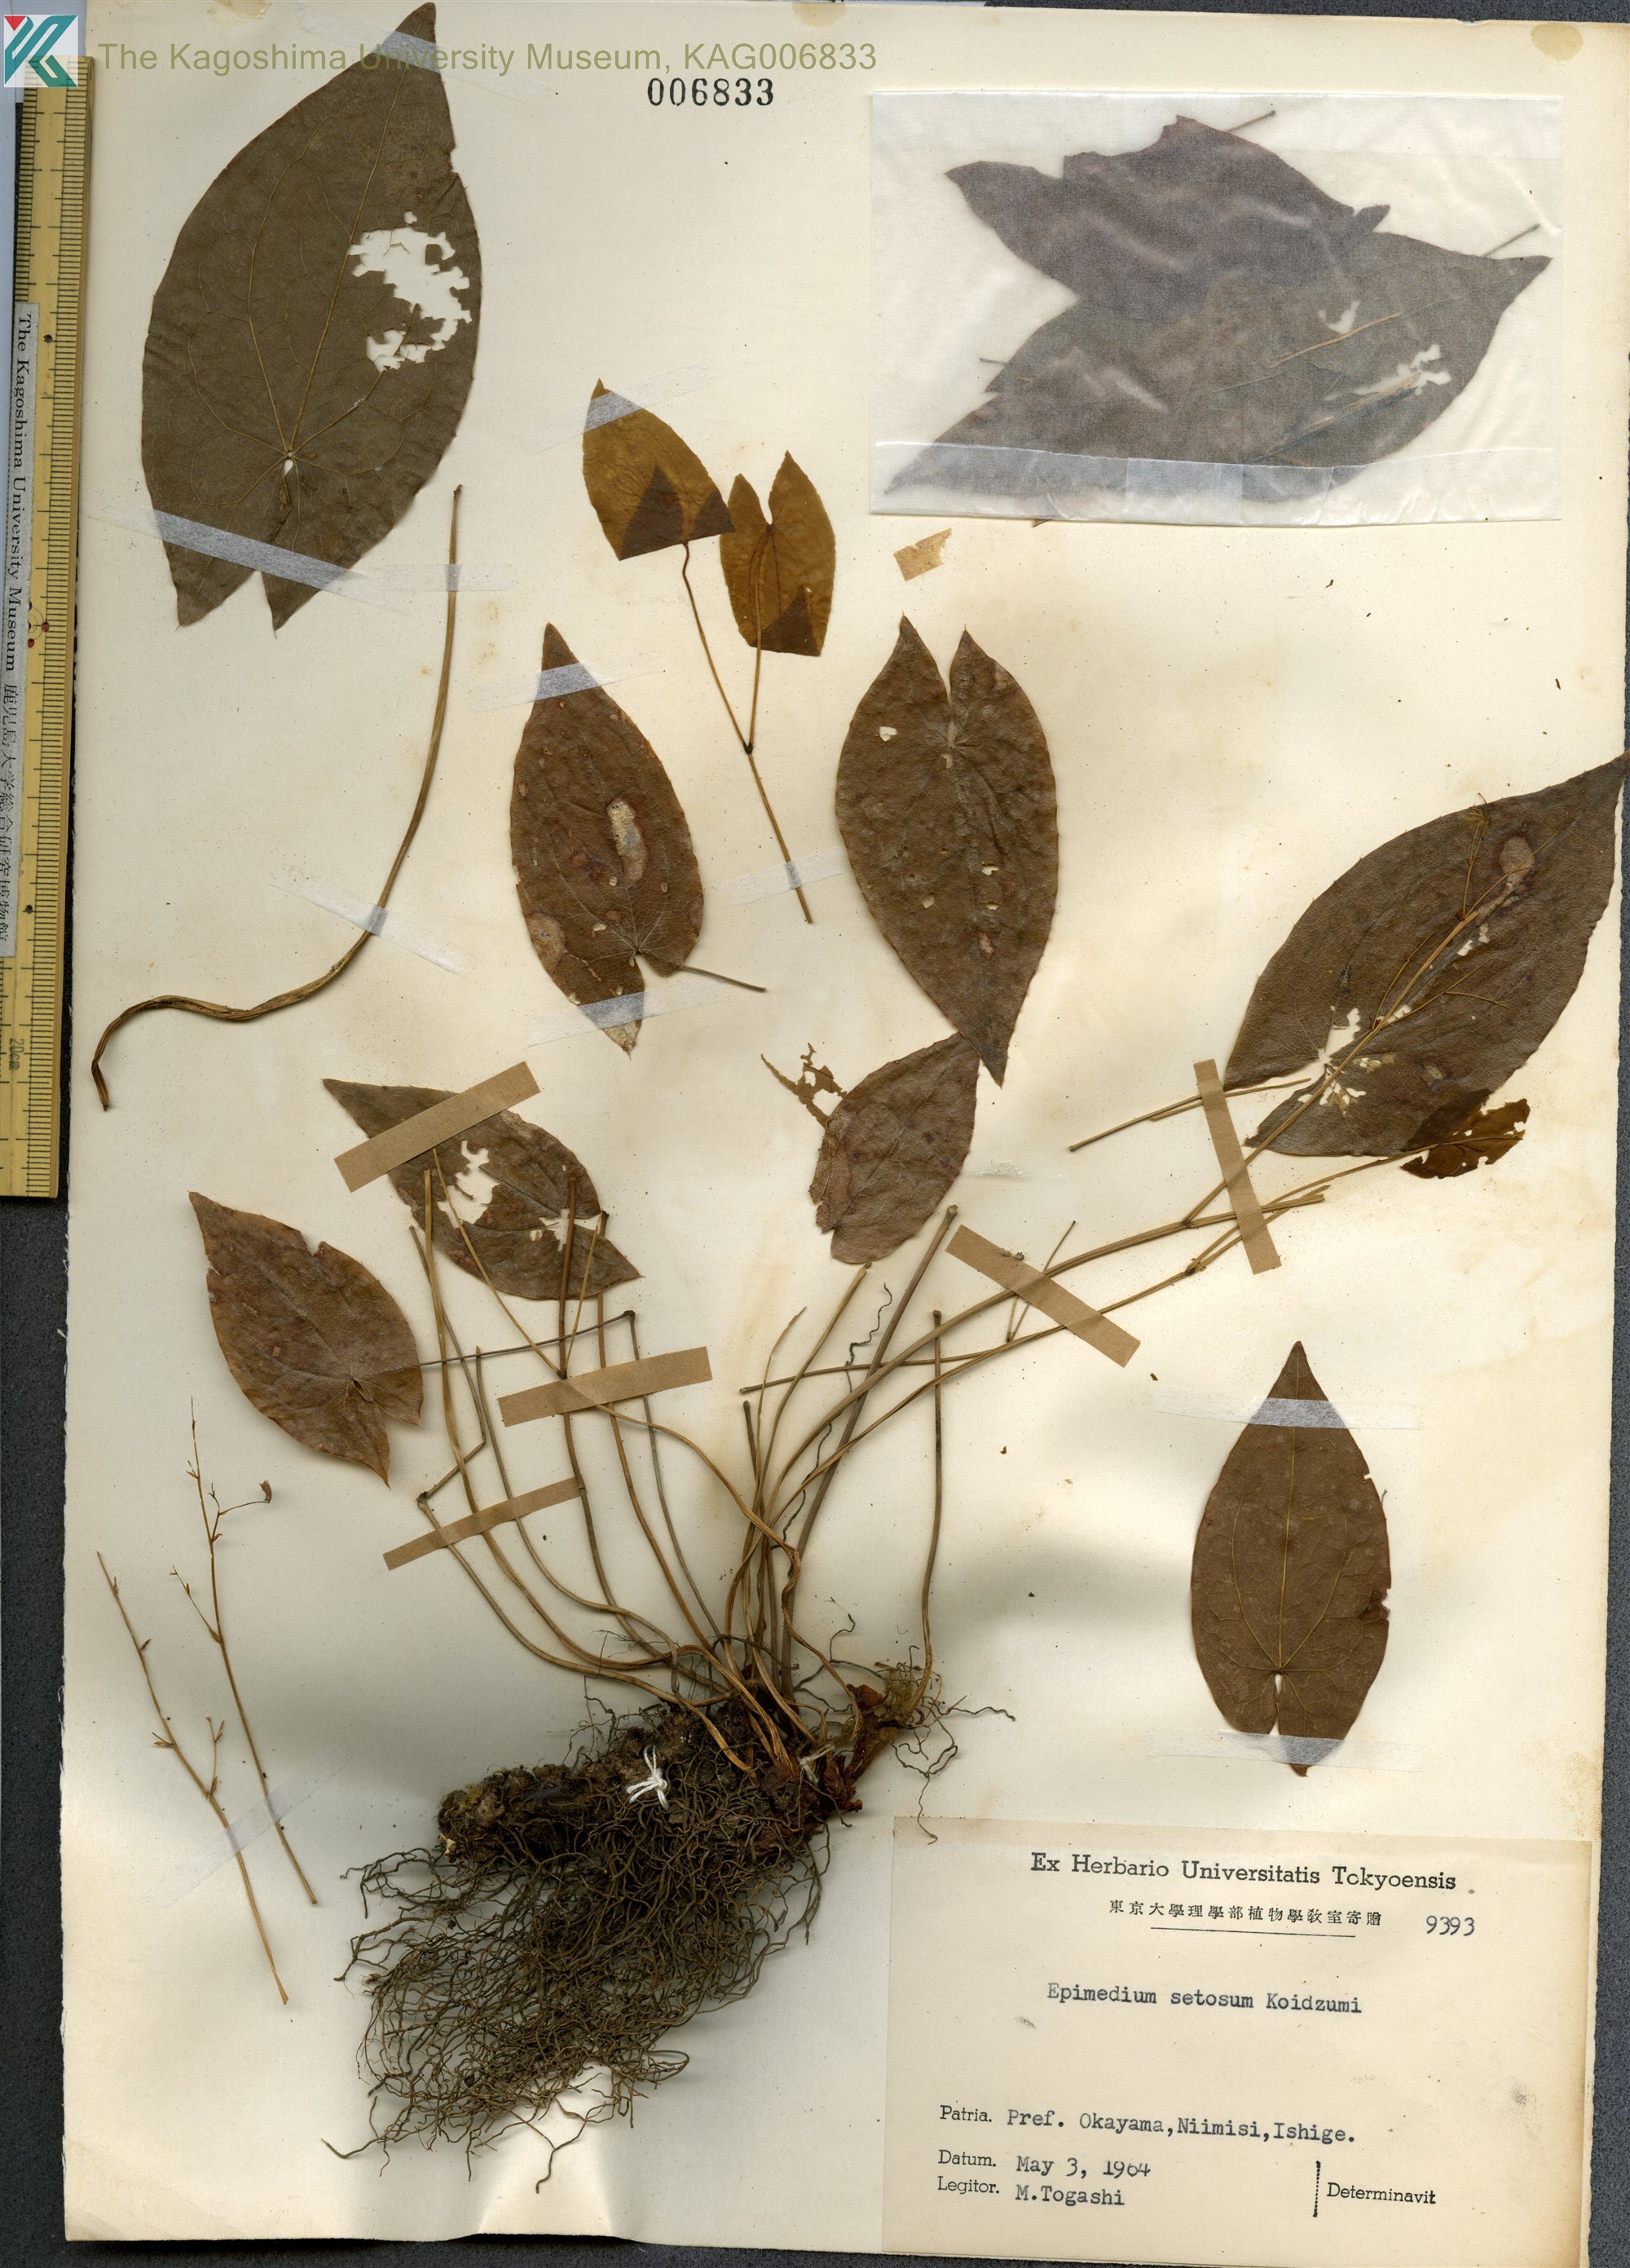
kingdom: Plantae
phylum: Tracheophyta
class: Magnoliopsida
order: Ranunculales
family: Berberidaceae
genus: Epimedium
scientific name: Epimedium setosum
